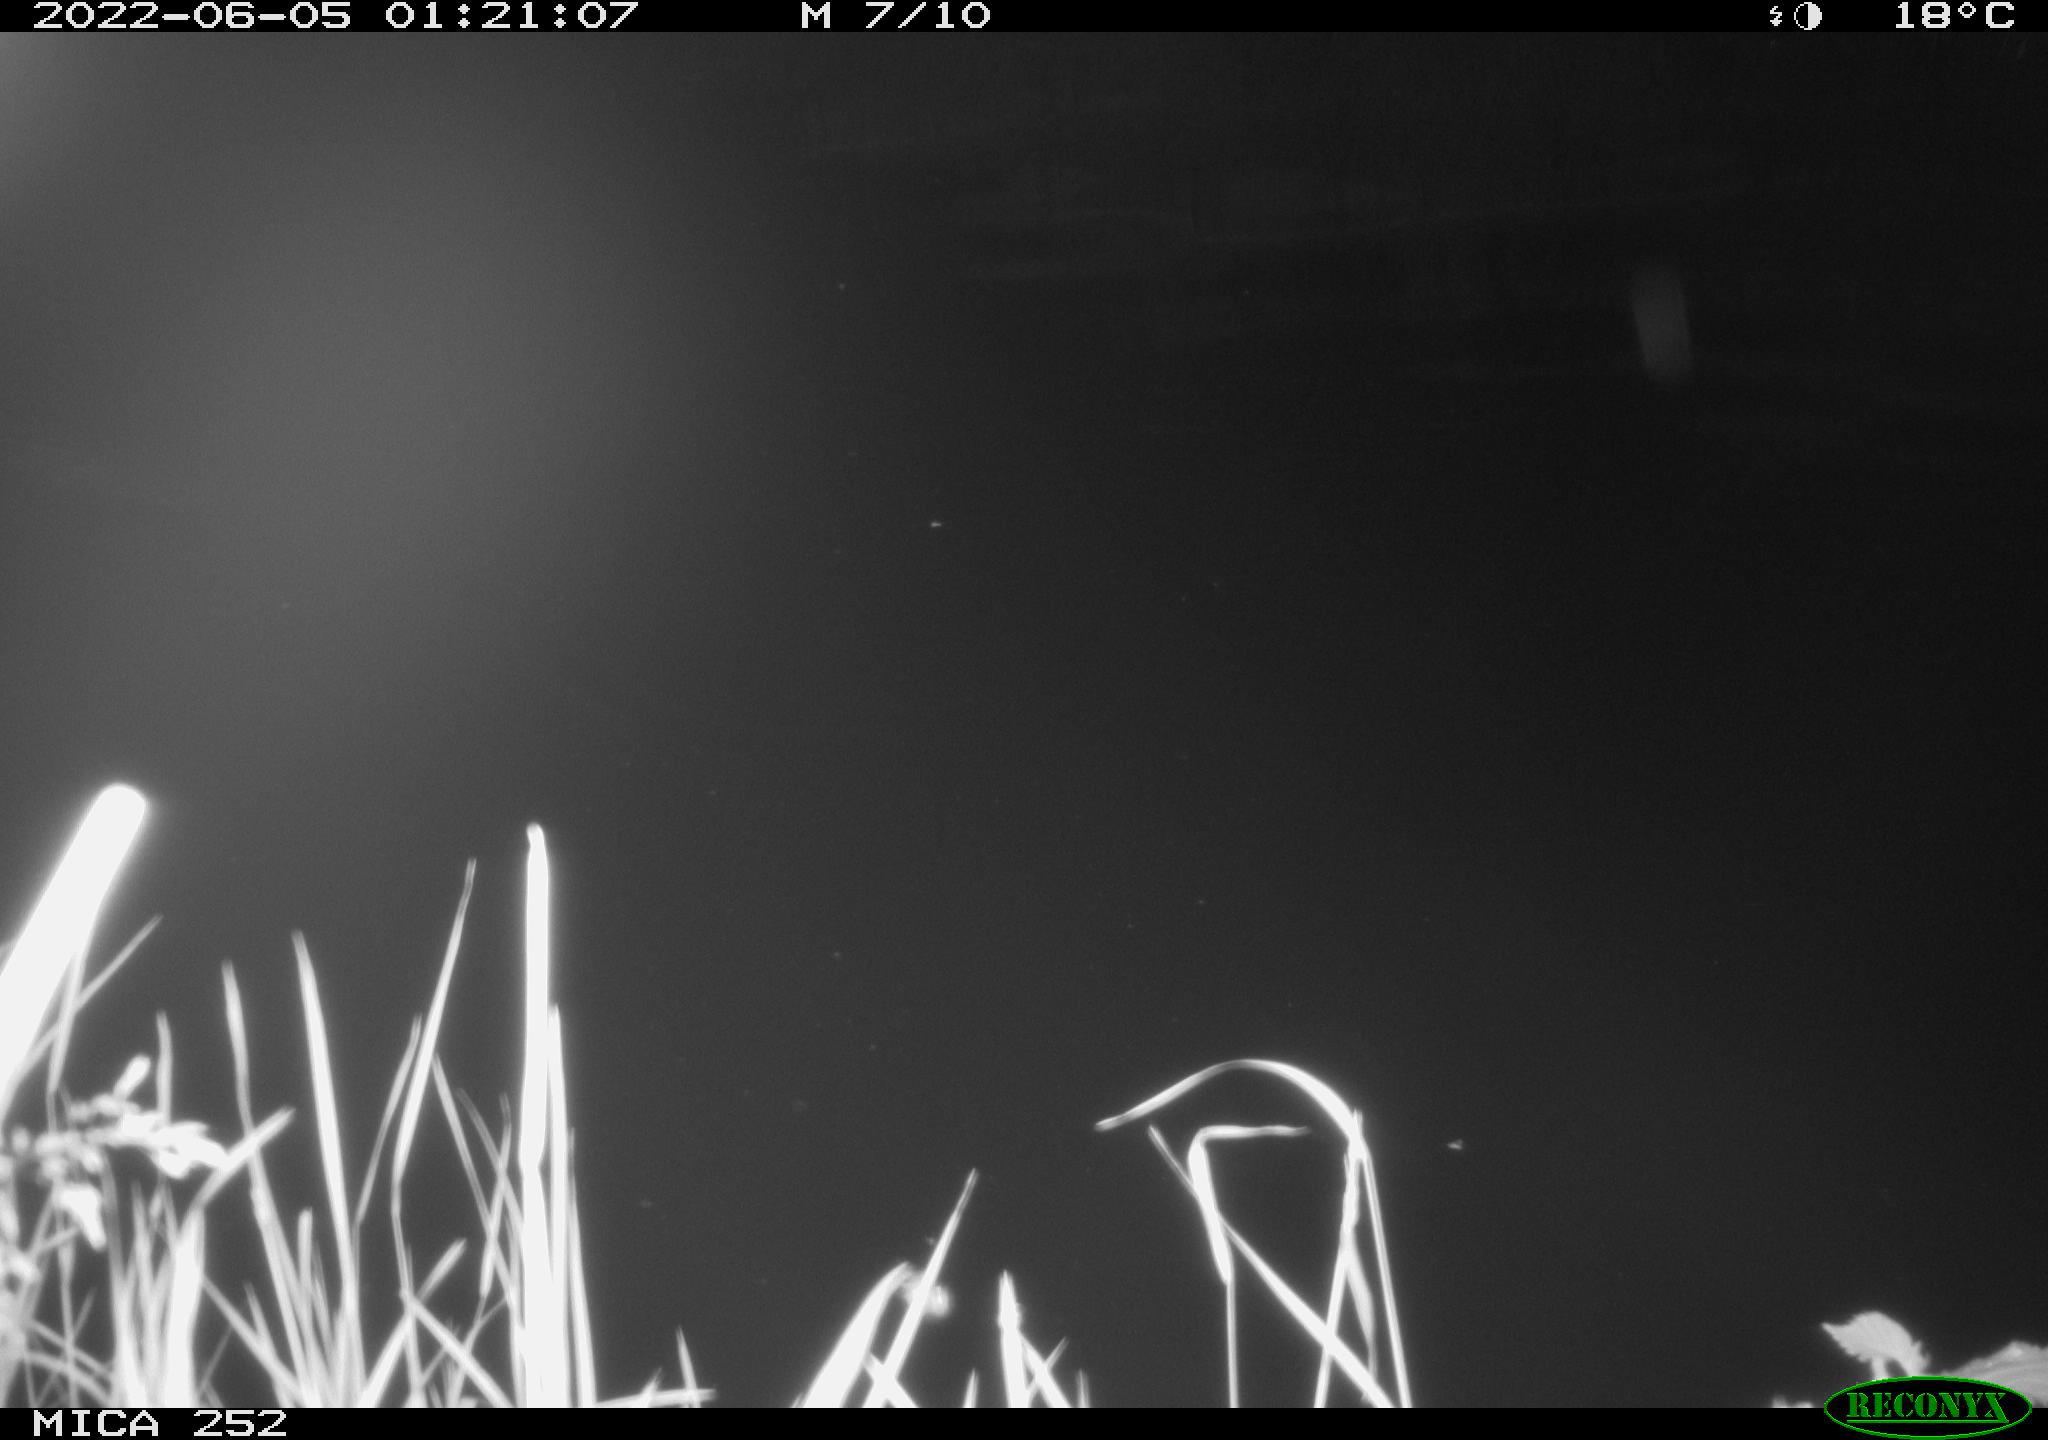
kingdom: Animalia
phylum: Chordata
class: Mammalia
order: Rodentia
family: Castoridae
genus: Castor
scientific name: Castor fiber
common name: Eurasian beaver
